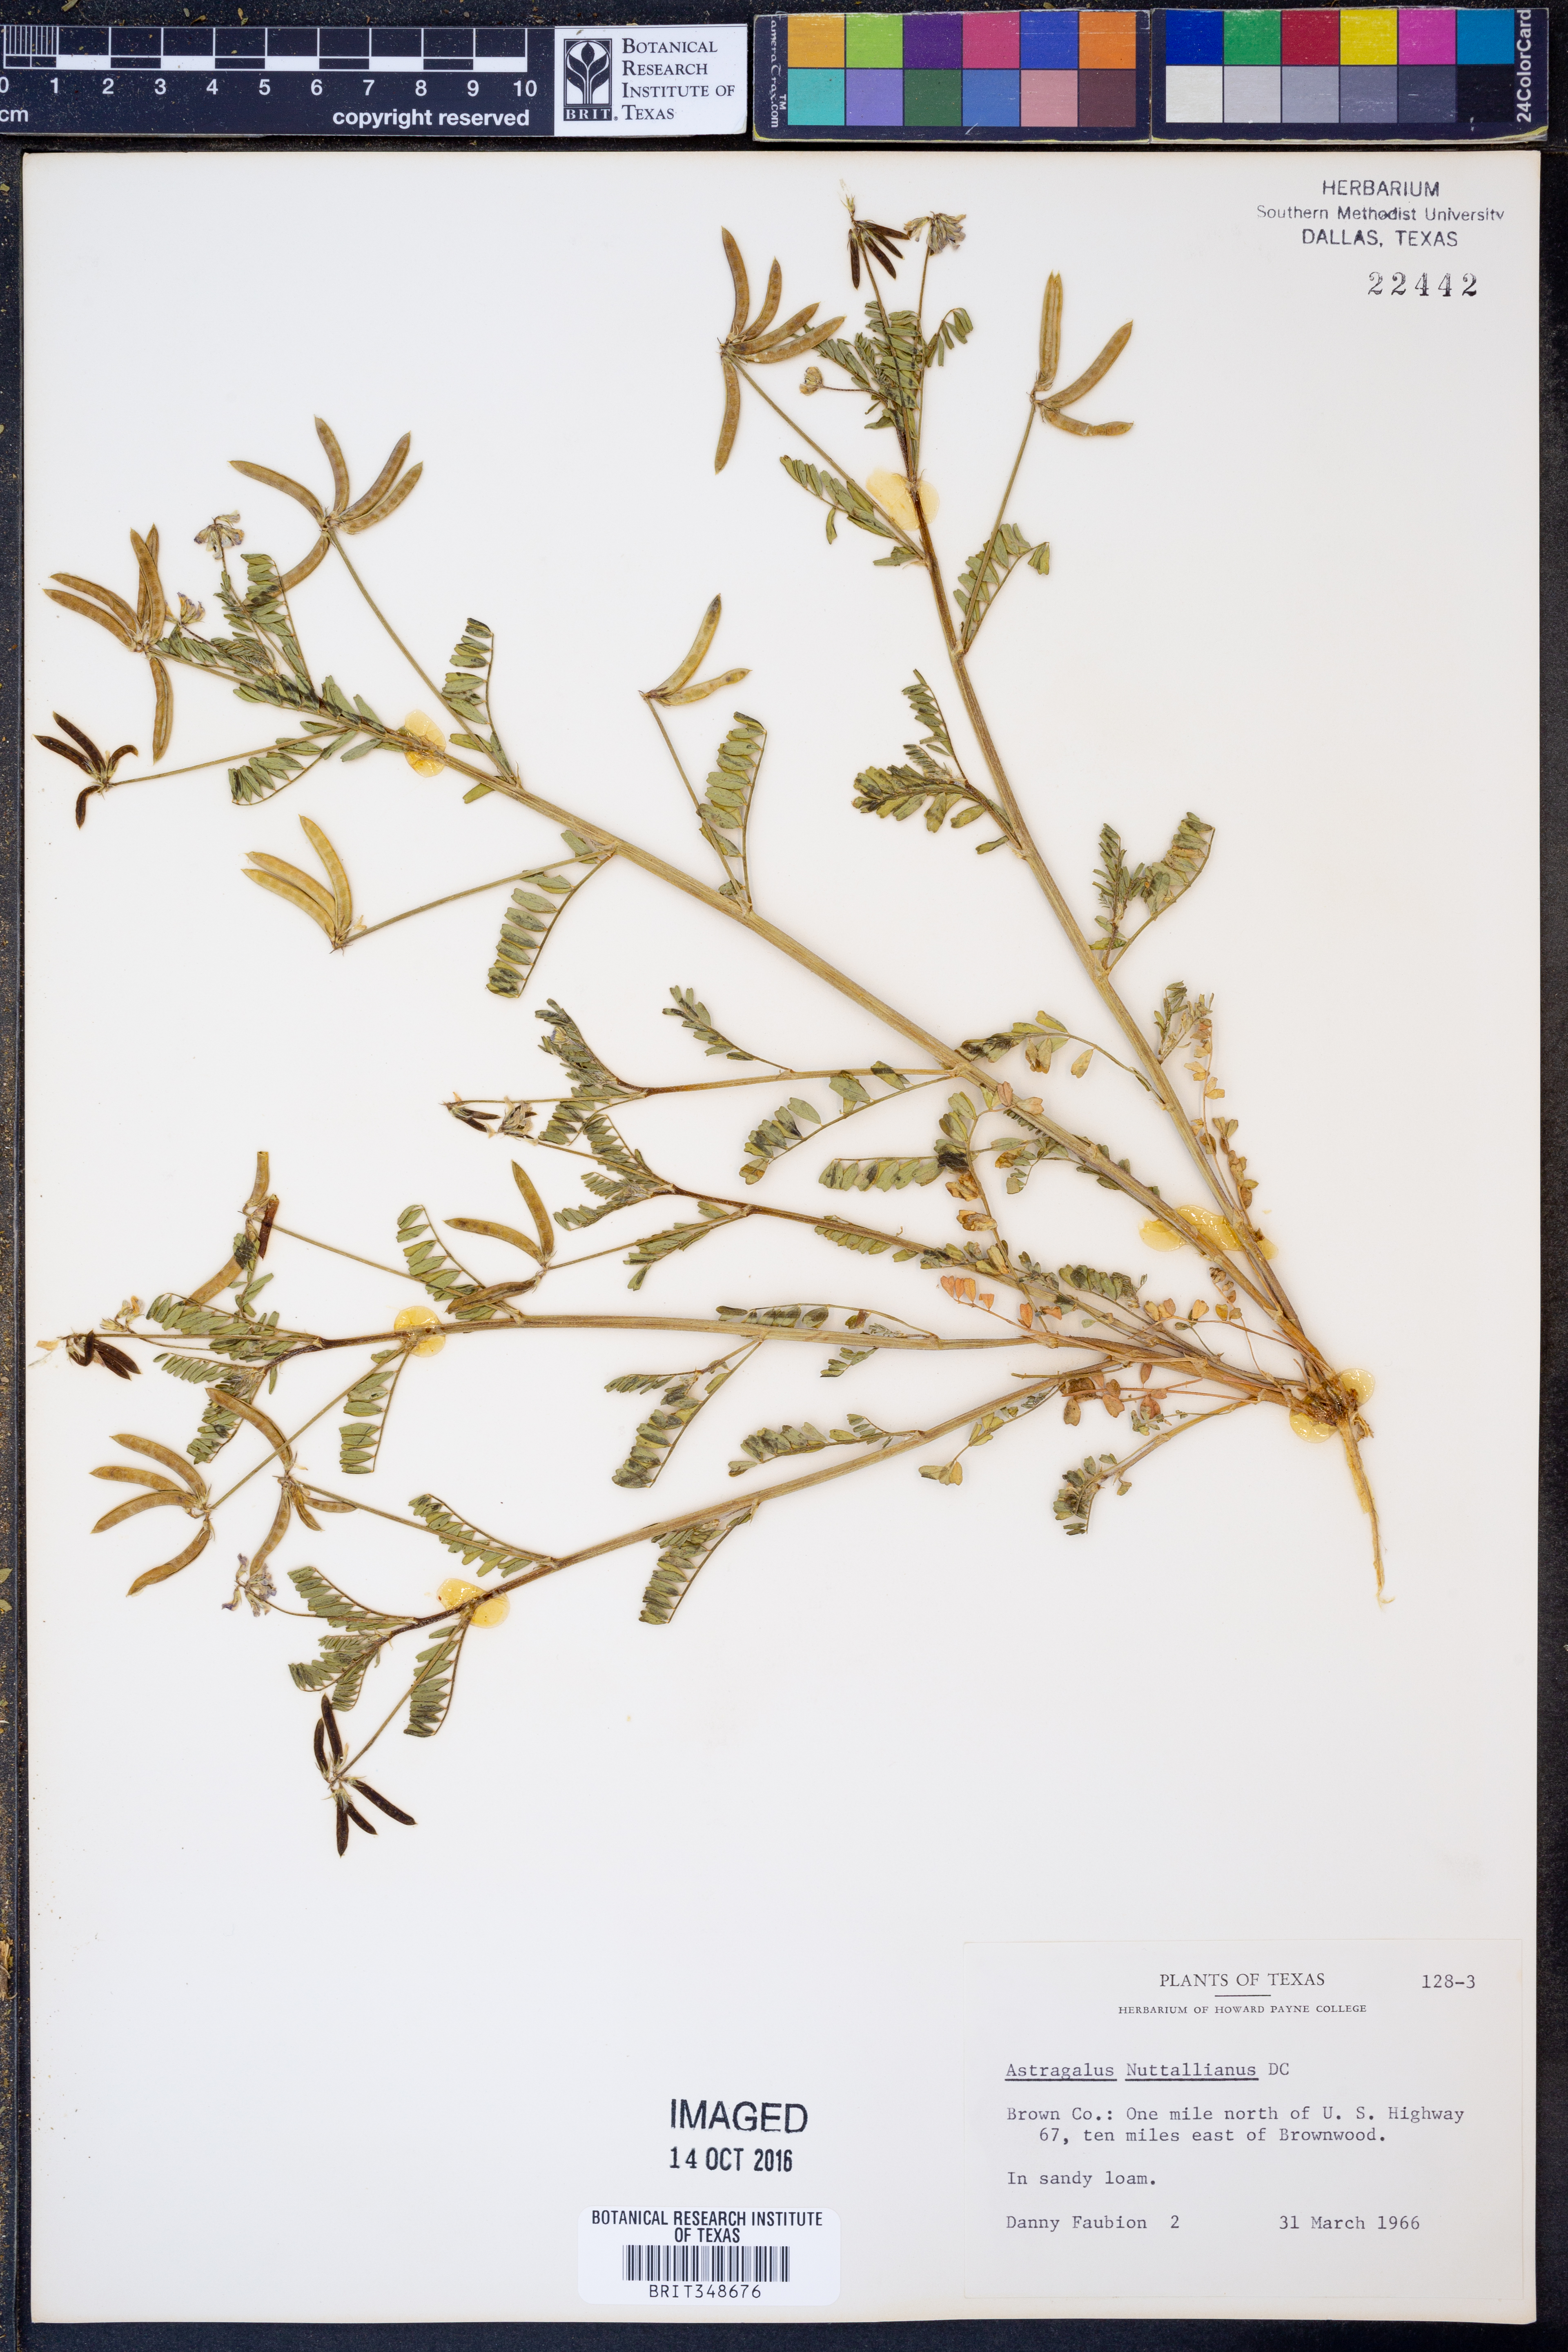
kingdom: Plantae
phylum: Tracheophyta
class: Magnoliopsida
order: Fabales
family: Fabaceae
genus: Astragalus
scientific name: Astragalus nuttallianus
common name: Smallflowered milkvetch
